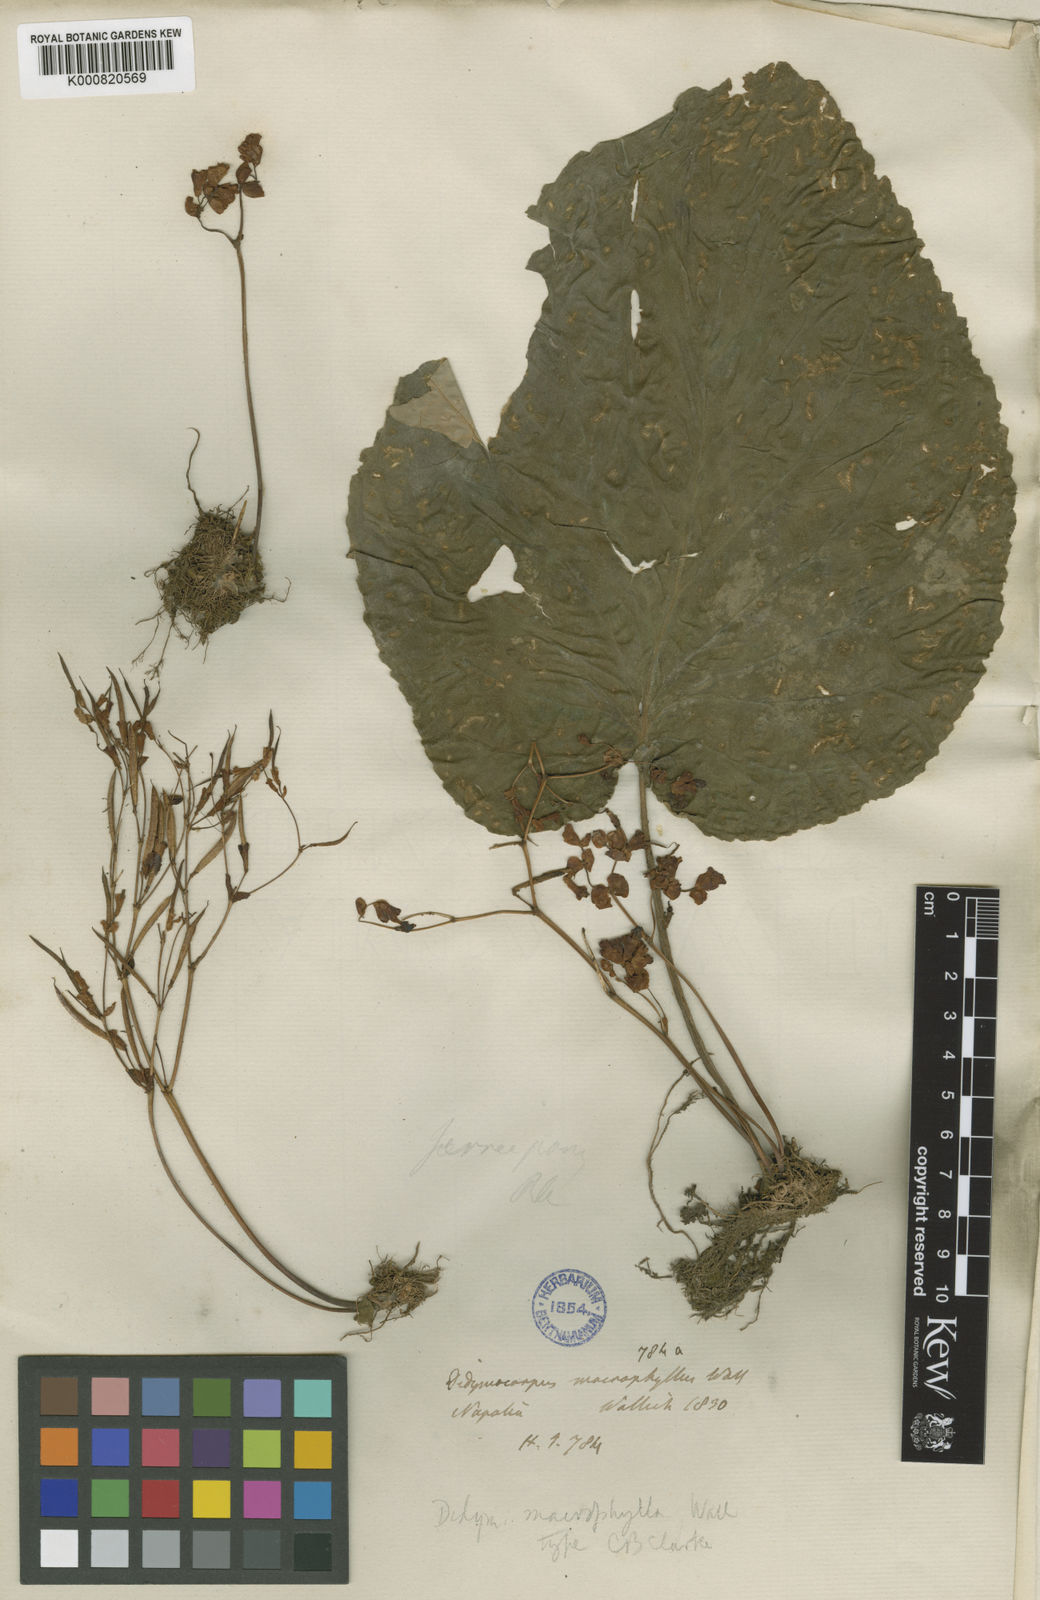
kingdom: Plantae
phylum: Tracheophyta
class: Magnoliopsida
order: Lamiales
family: Gesneriaceae
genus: Didymocarpus
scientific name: Didymocarpus macrophyllus
